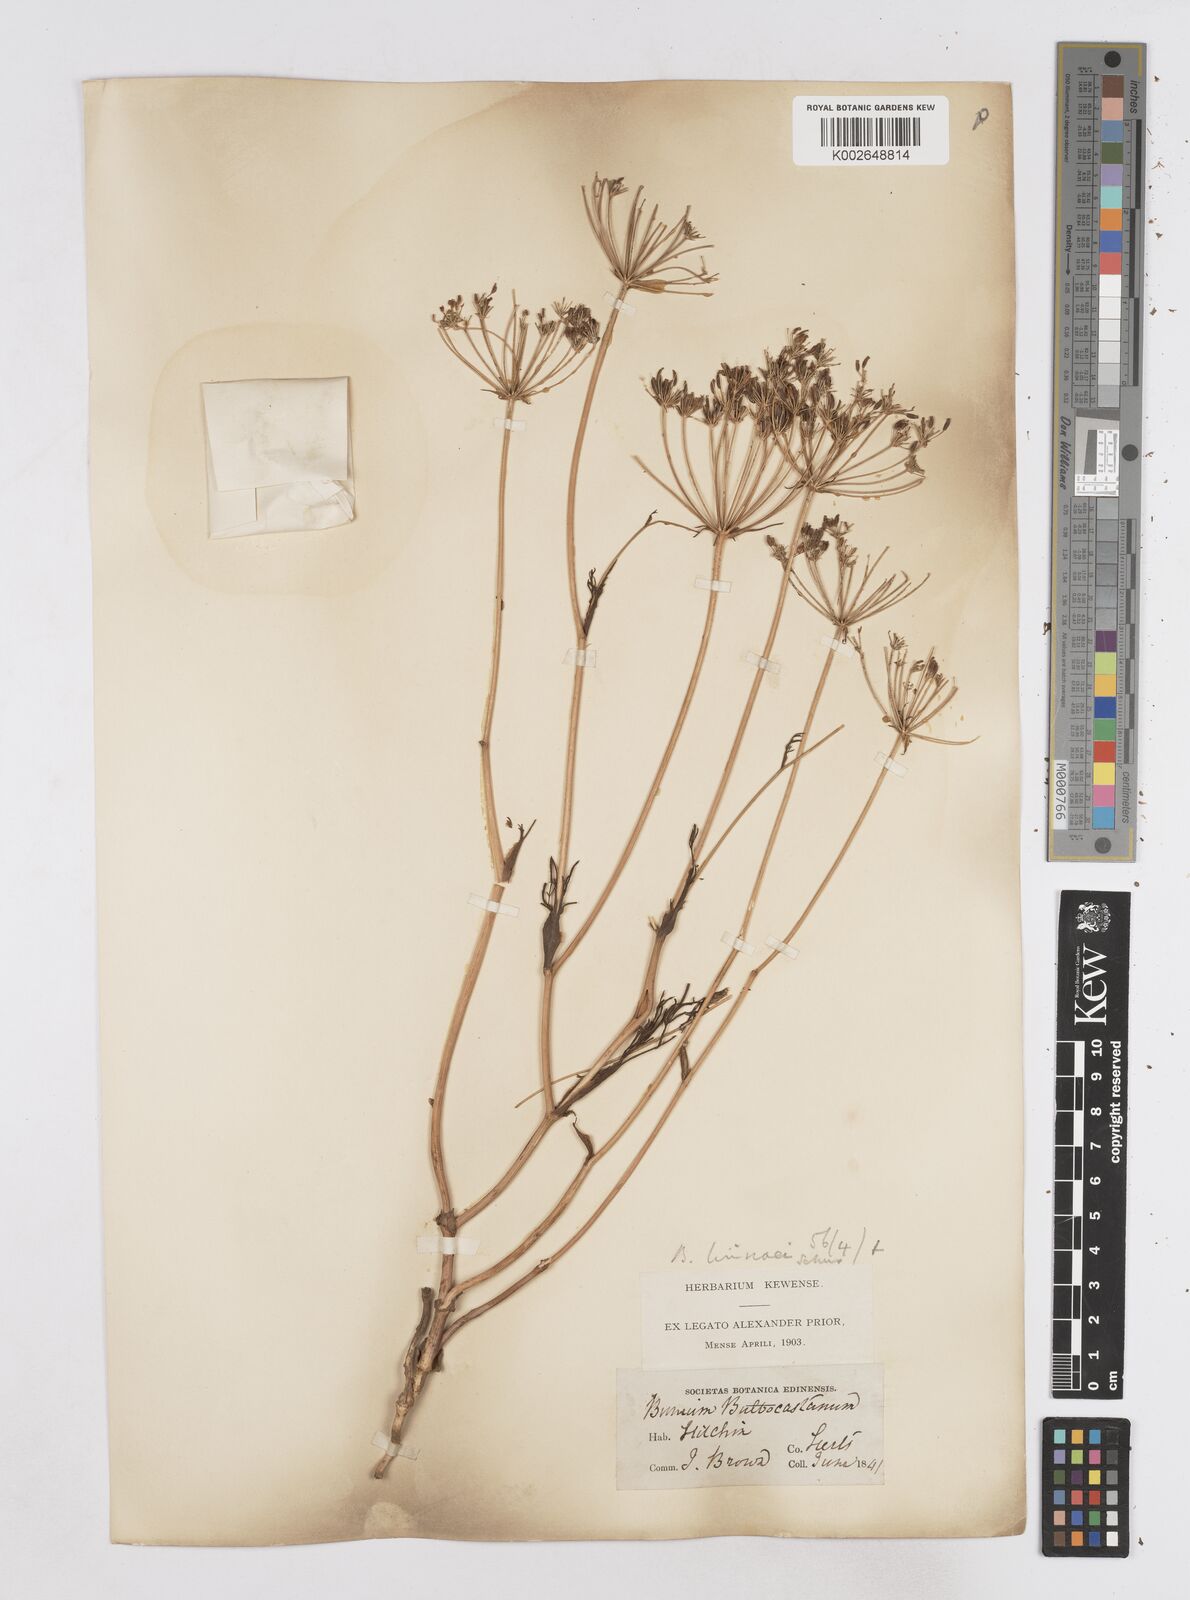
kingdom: Plantae
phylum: Tracheophyta
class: Magnoliopsida
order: Apiales
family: Apiaceae
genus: Bunium
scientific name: Bunium bulbocastanum
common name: Great pignut
